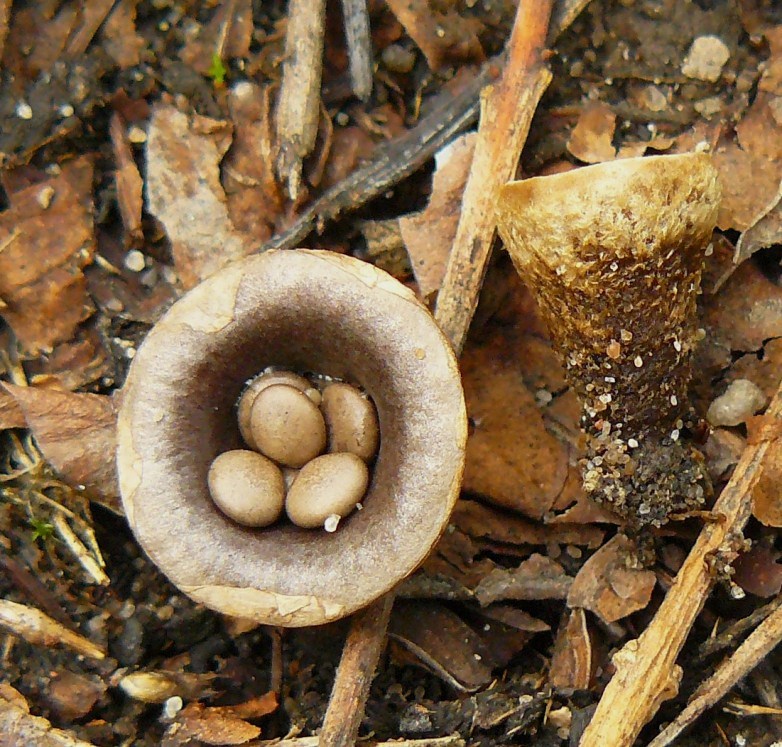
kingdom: Fungi
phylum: Basidiomycota
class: Agaricomycetes
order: Agaricales
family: Agaricaceae
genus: Cyathus
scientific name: Cyathus olla
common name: klokke-redesvamp
